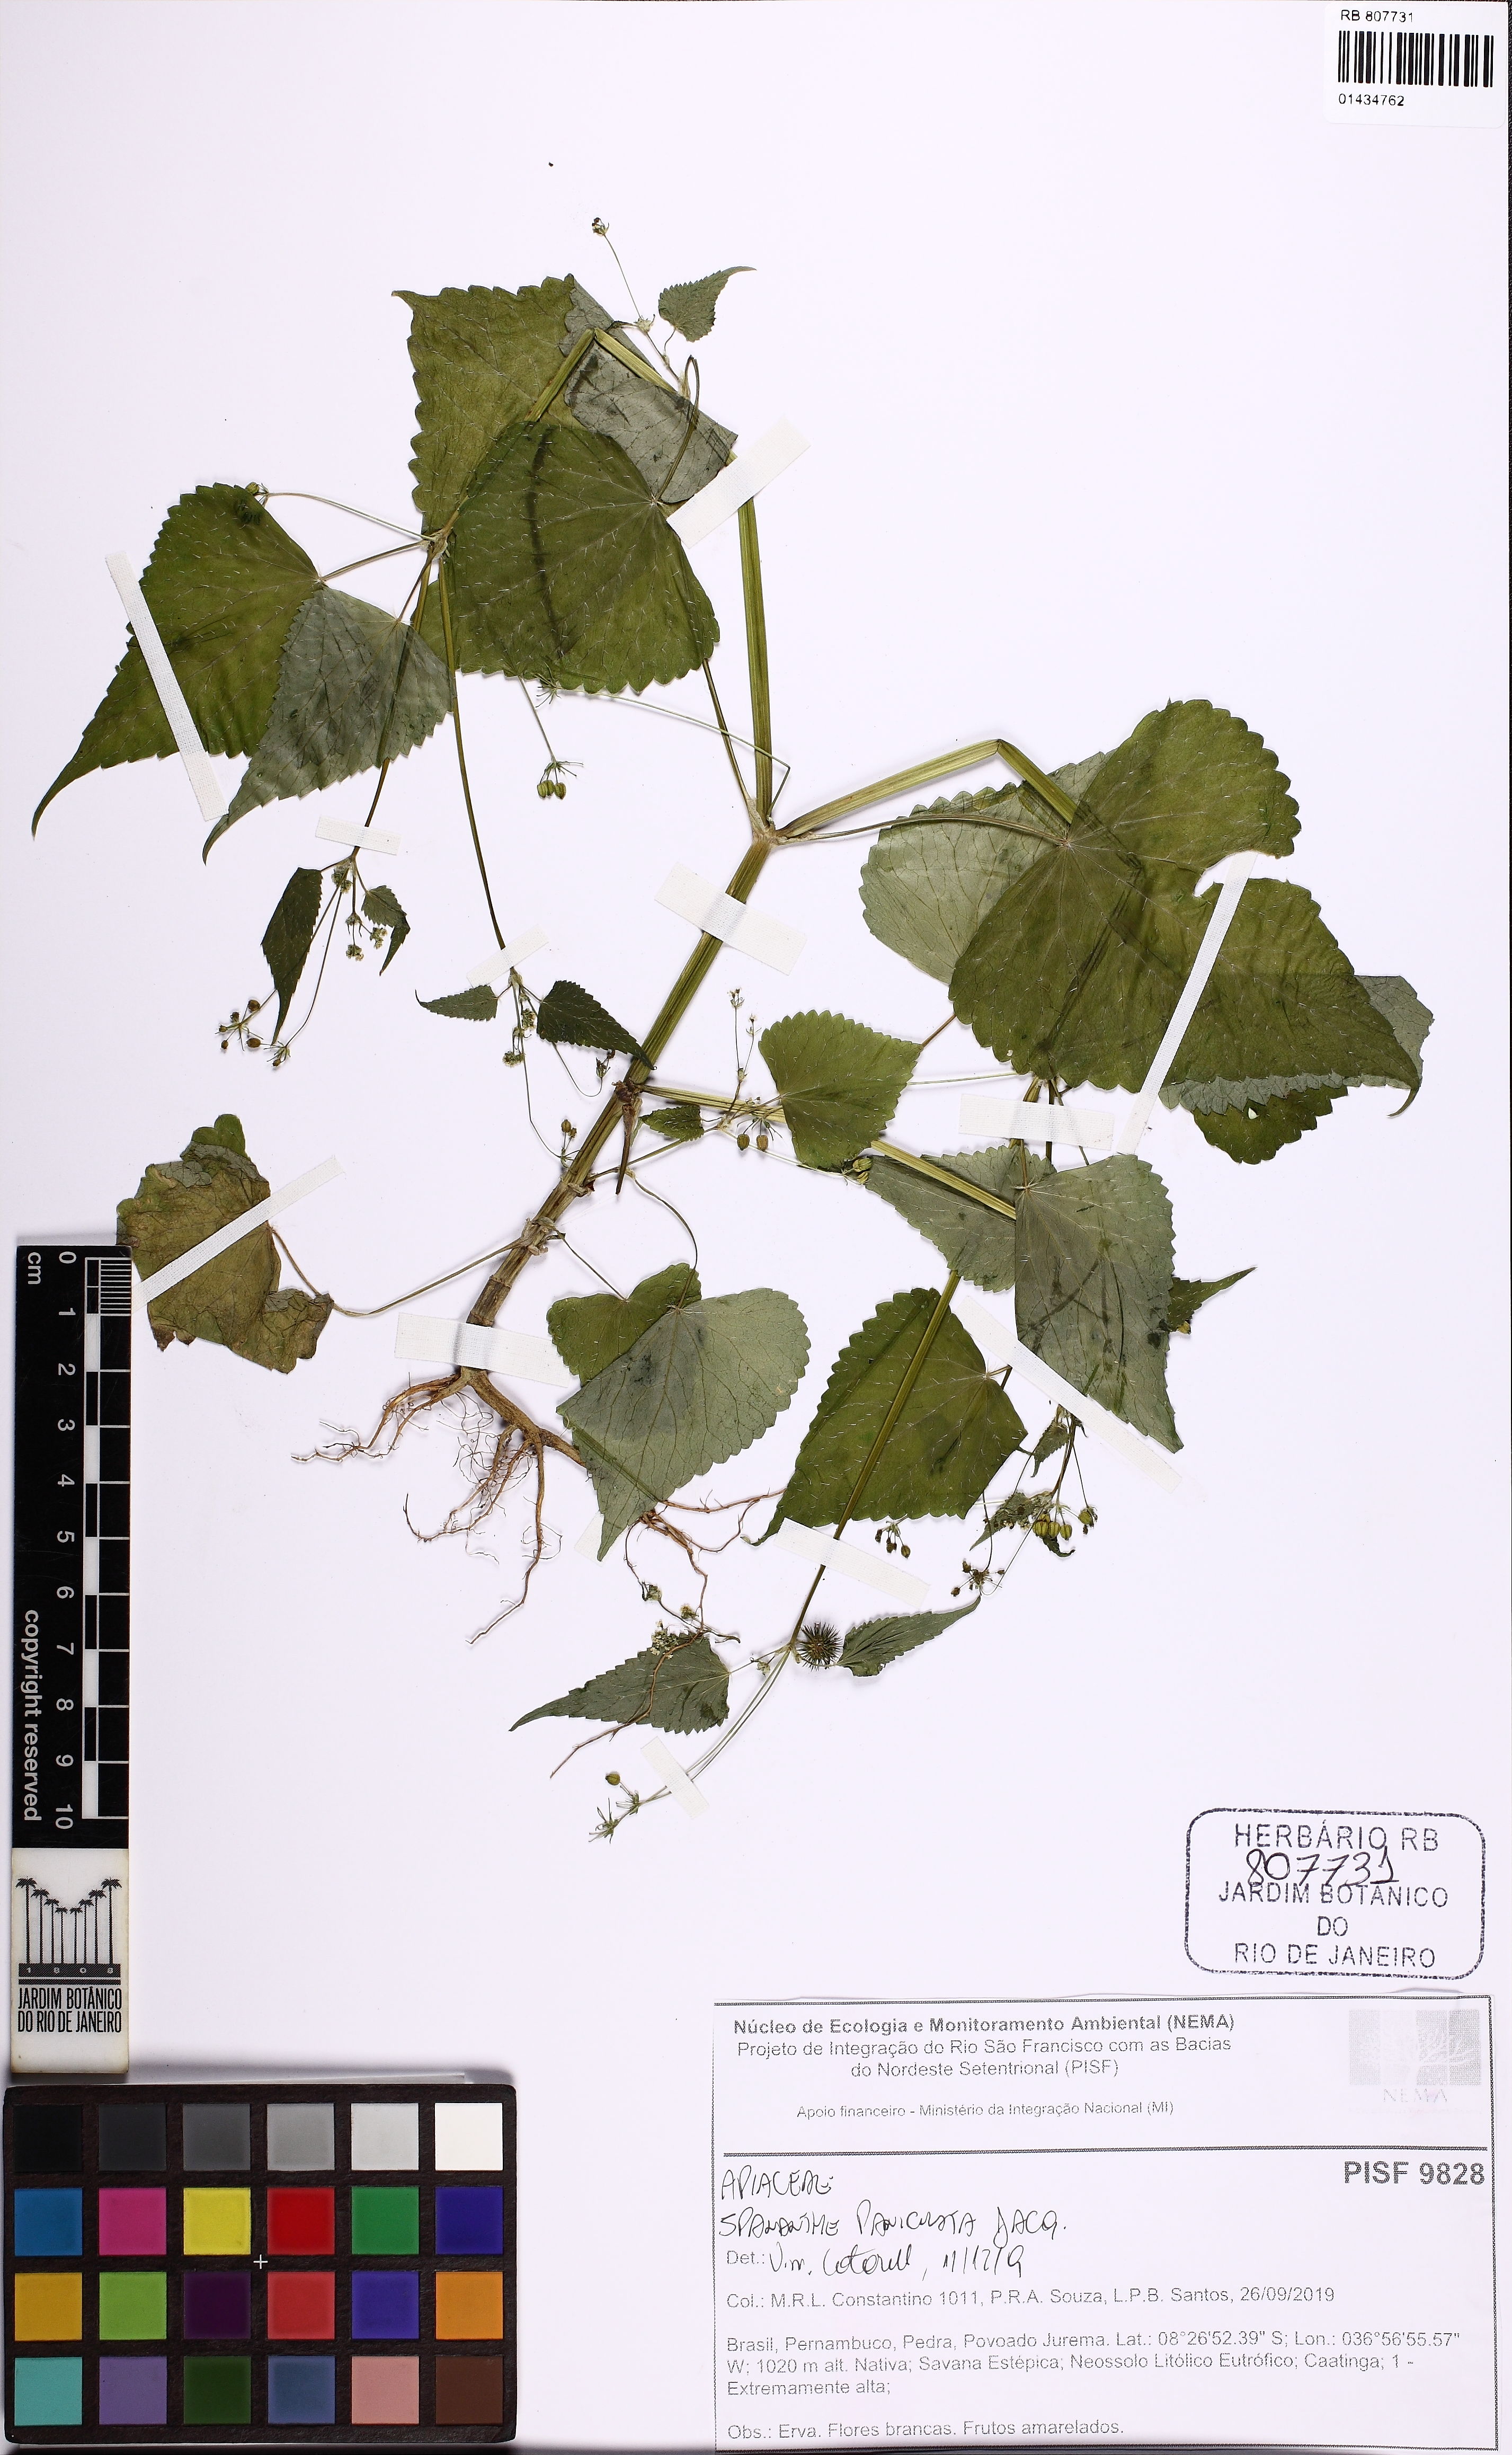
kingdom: Plantae
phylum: Tracheophyta
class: Magnoliopsida
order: Apiales
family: Apiaceae
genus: Spananthe
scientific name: Spananthe paniculata
